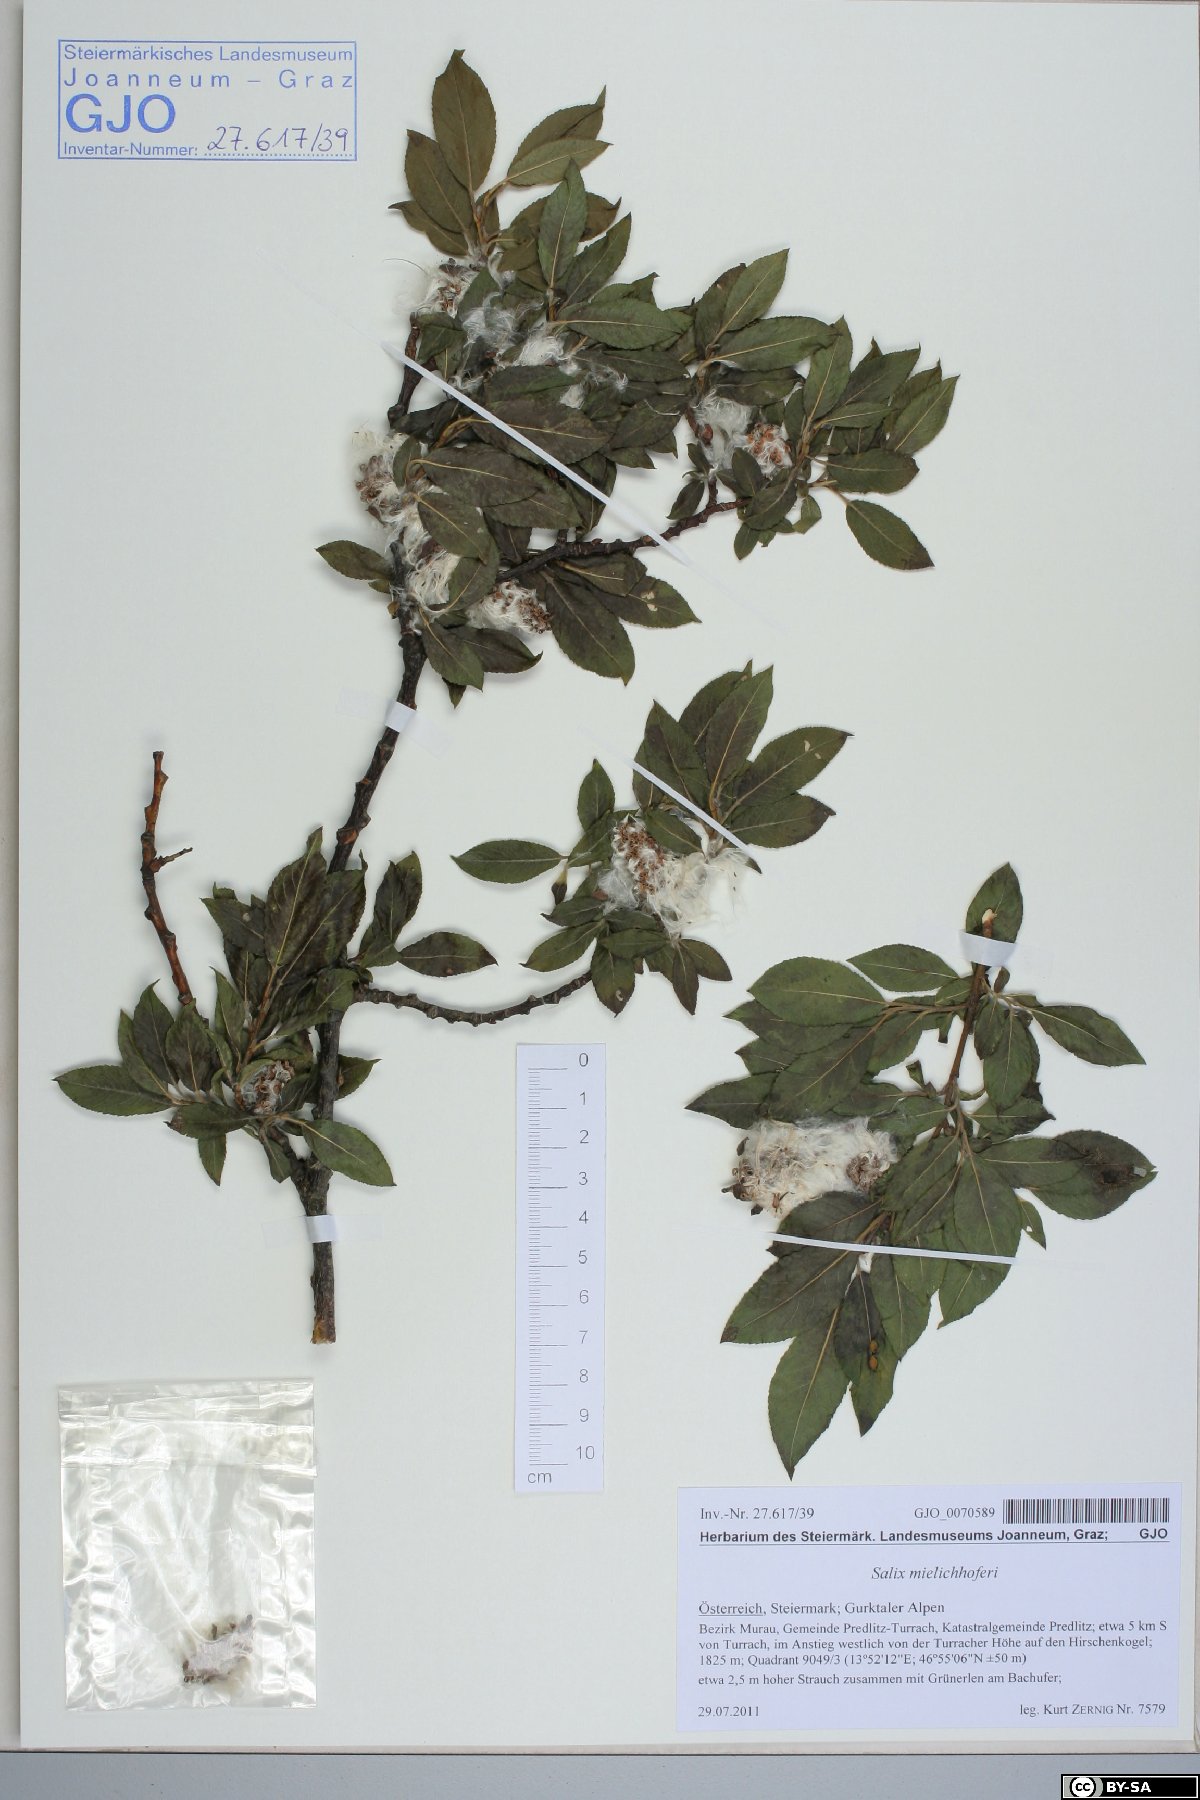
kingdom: Plantae
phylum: Tracheophyta
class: Magnoliopsida
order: Malpighiales
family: Salicaceae
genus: Salix
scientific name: Salix mielichhoferi
